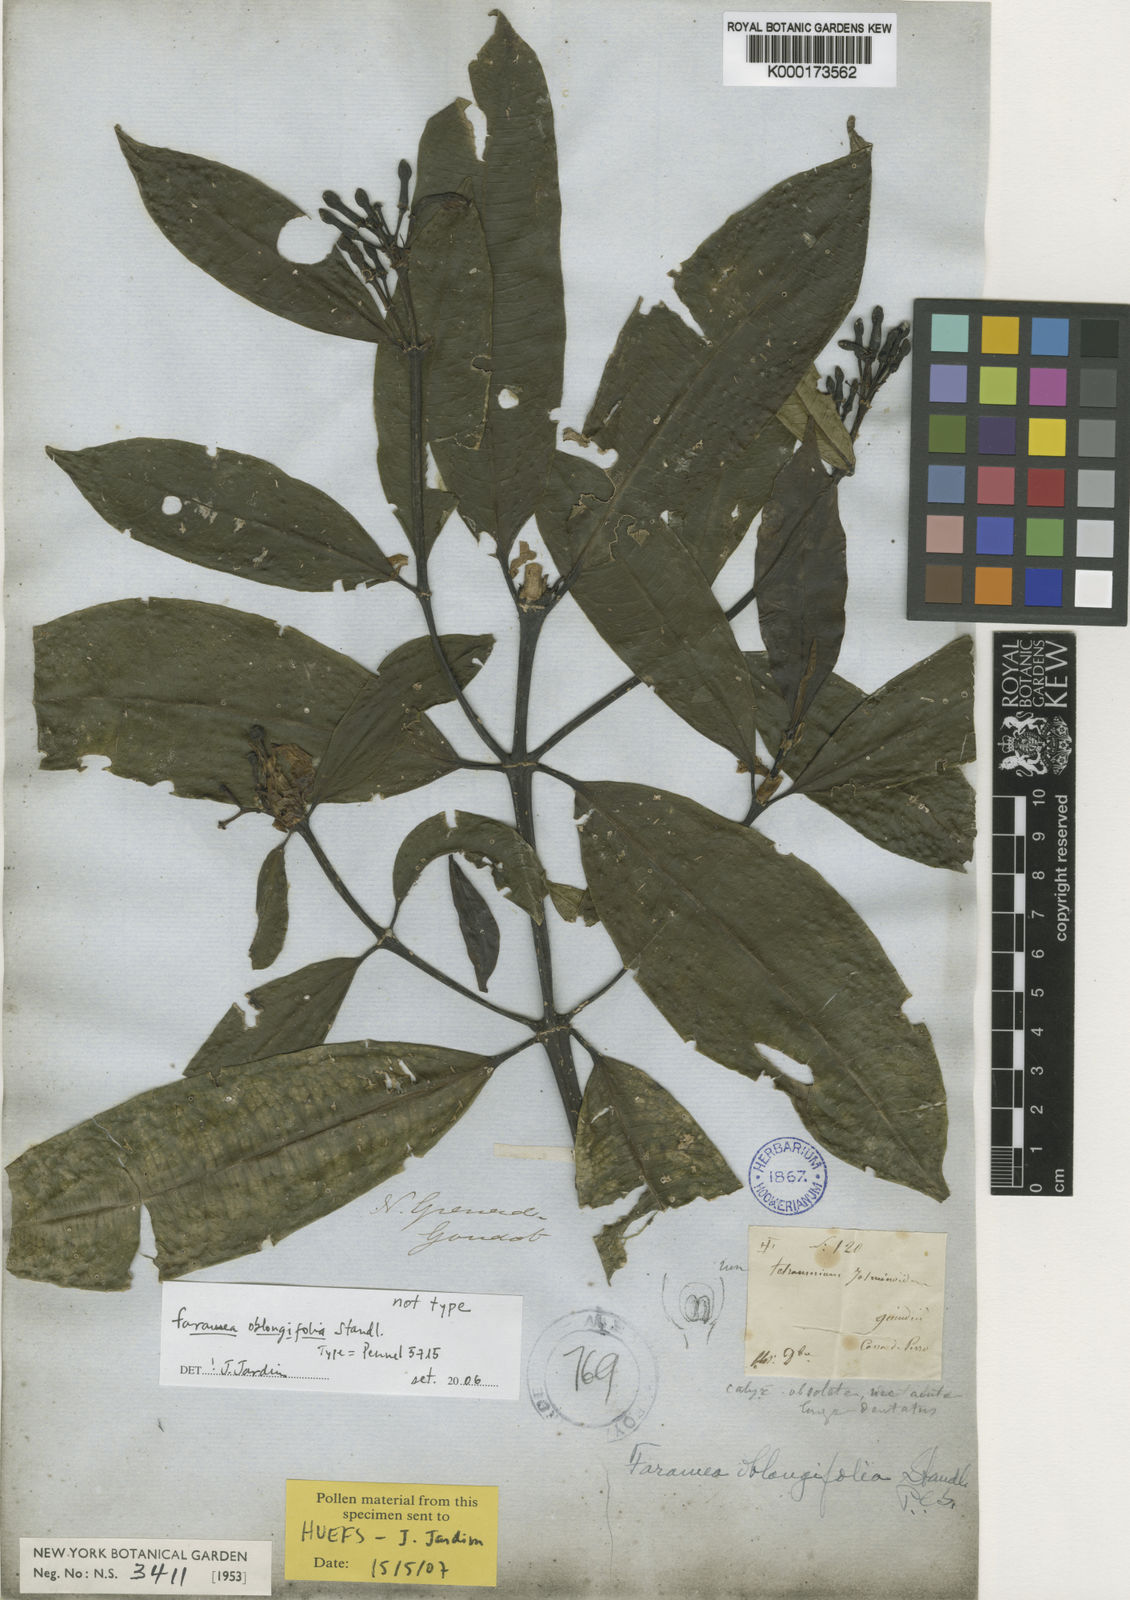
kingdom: Plantae
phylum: Tracheophyta
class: Magnoliopsida
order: Gentianales
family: Rubiaceae
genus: Faramea
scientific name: Faramea oblongifolia
